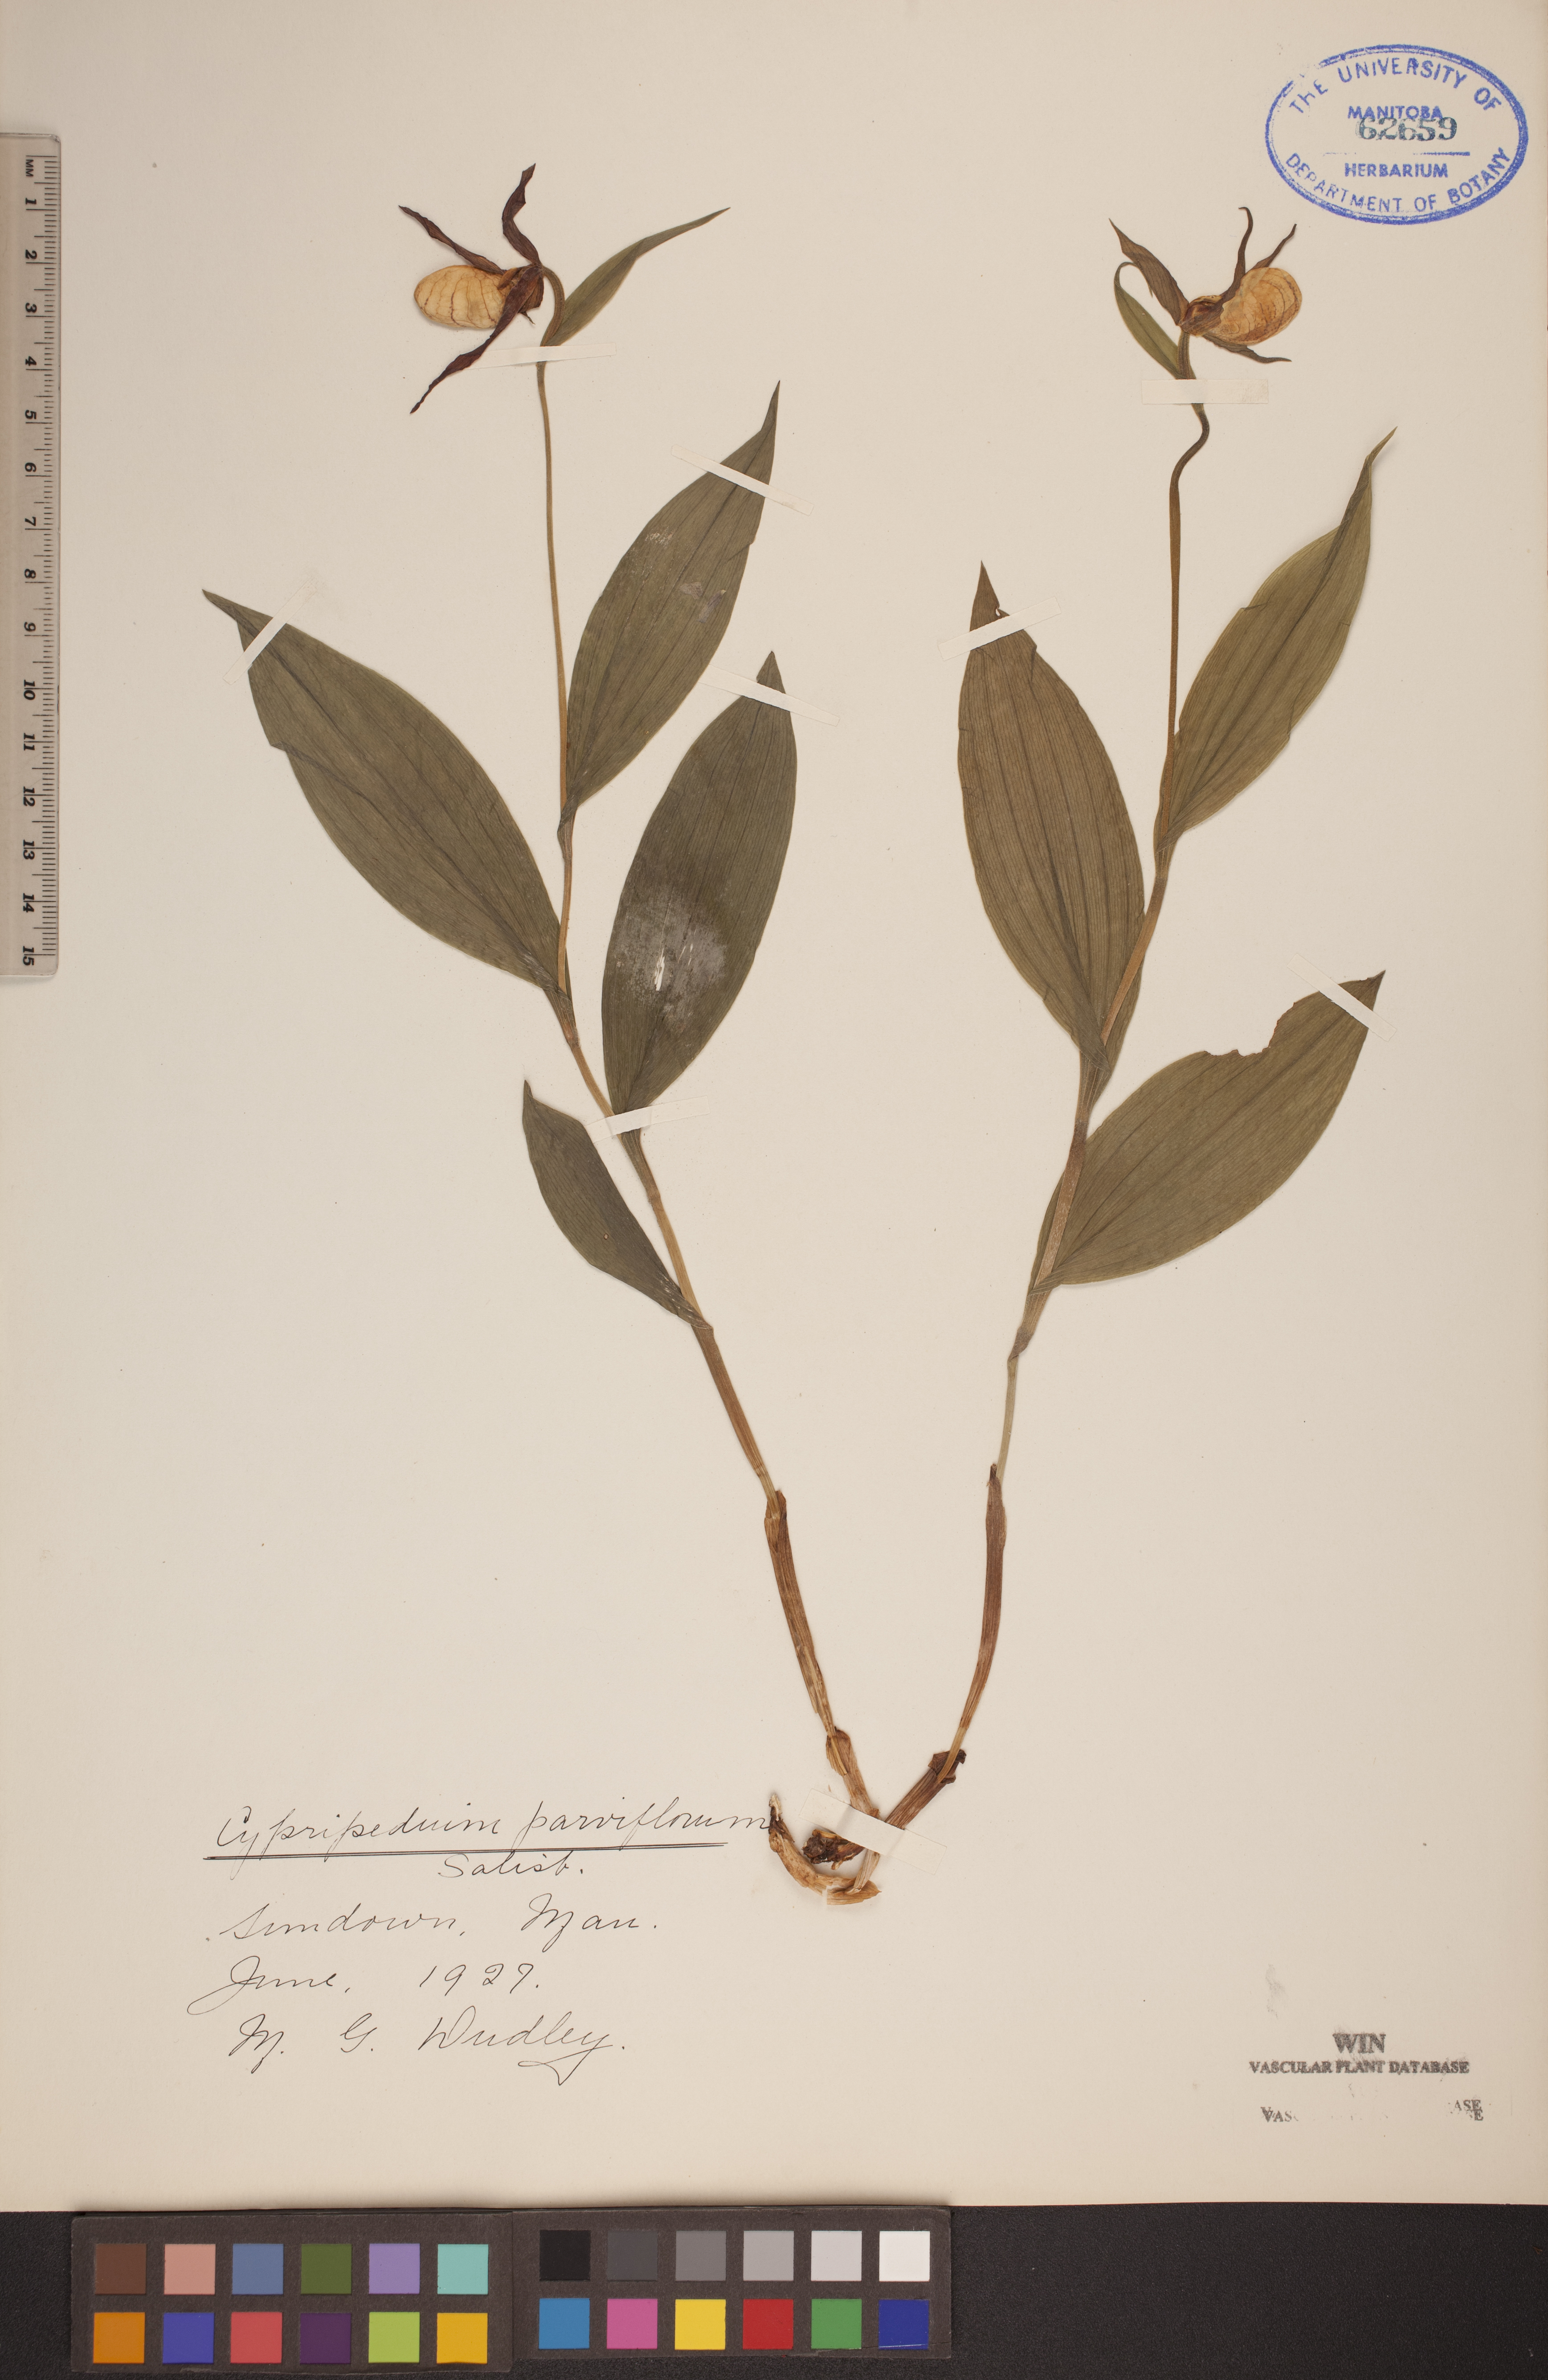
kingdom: Plantae
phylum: Tracheophyta
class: Liliopsida
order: Asparagales
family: Orchidaceae
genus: Cypripedium
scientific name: Cypripedium parviflorum
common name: American yellow lady's-slipper
